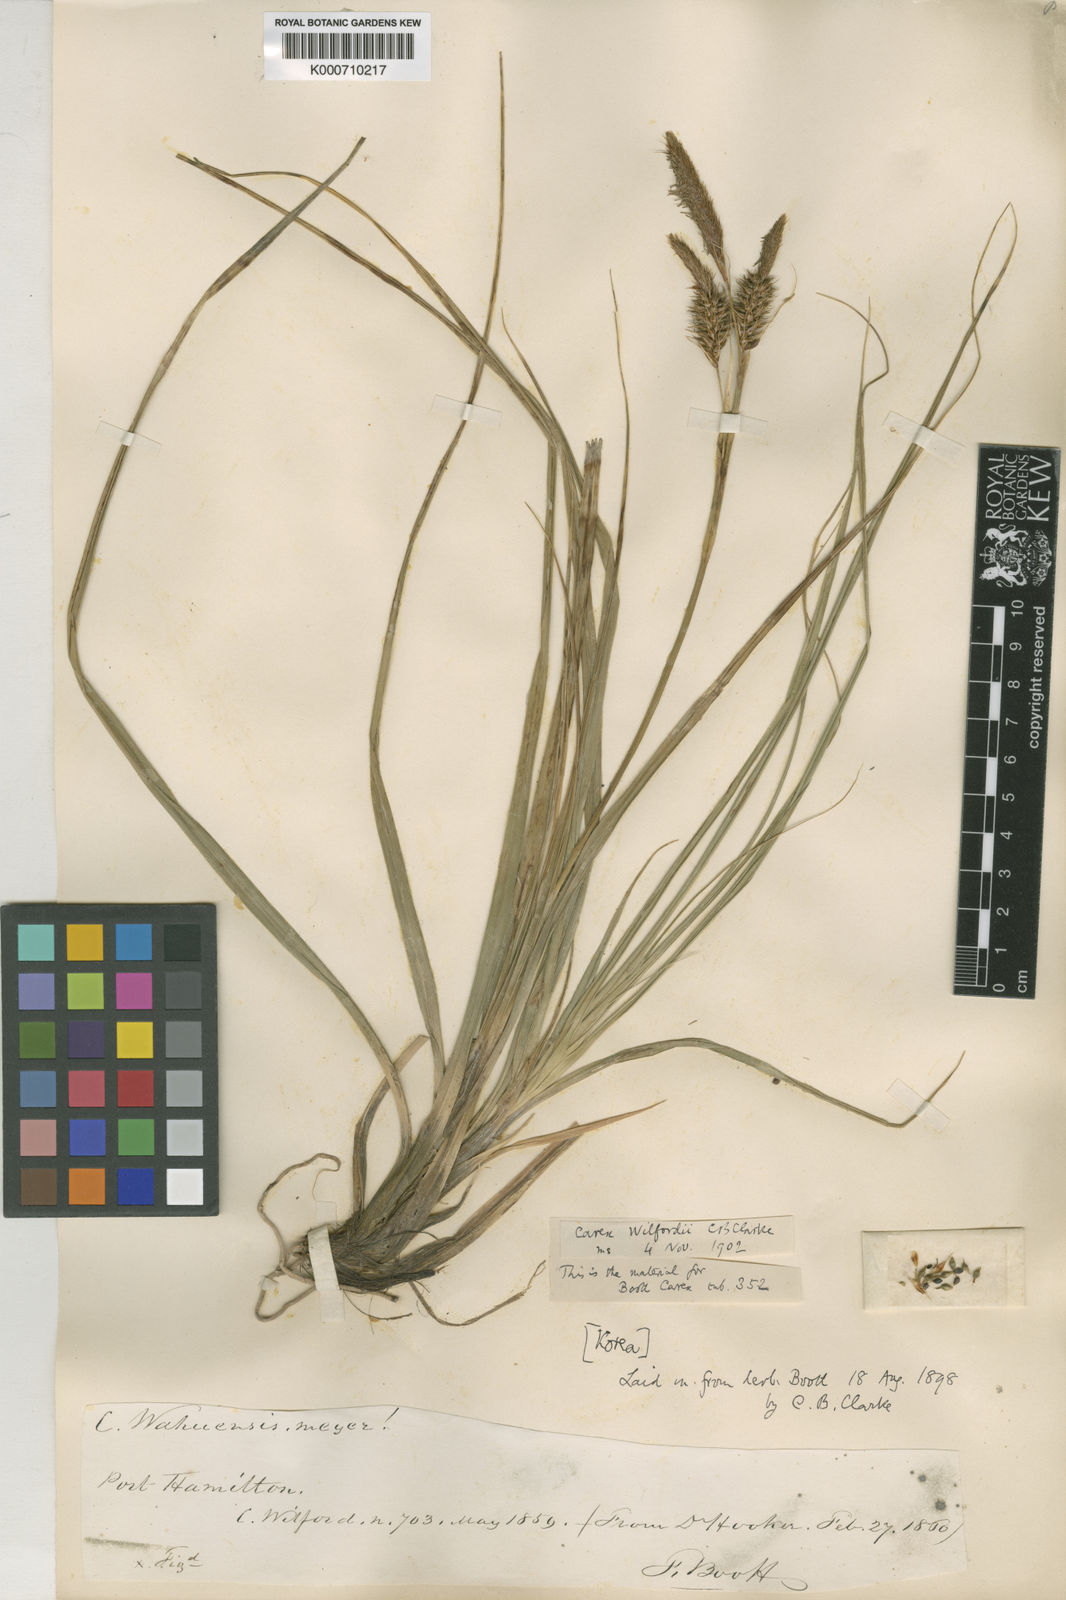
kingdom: Plantae
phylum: Tracheophyta
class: Liliopsida
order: Poales
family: Cyperaceae
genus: Carex
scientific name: Carex wahuensis
